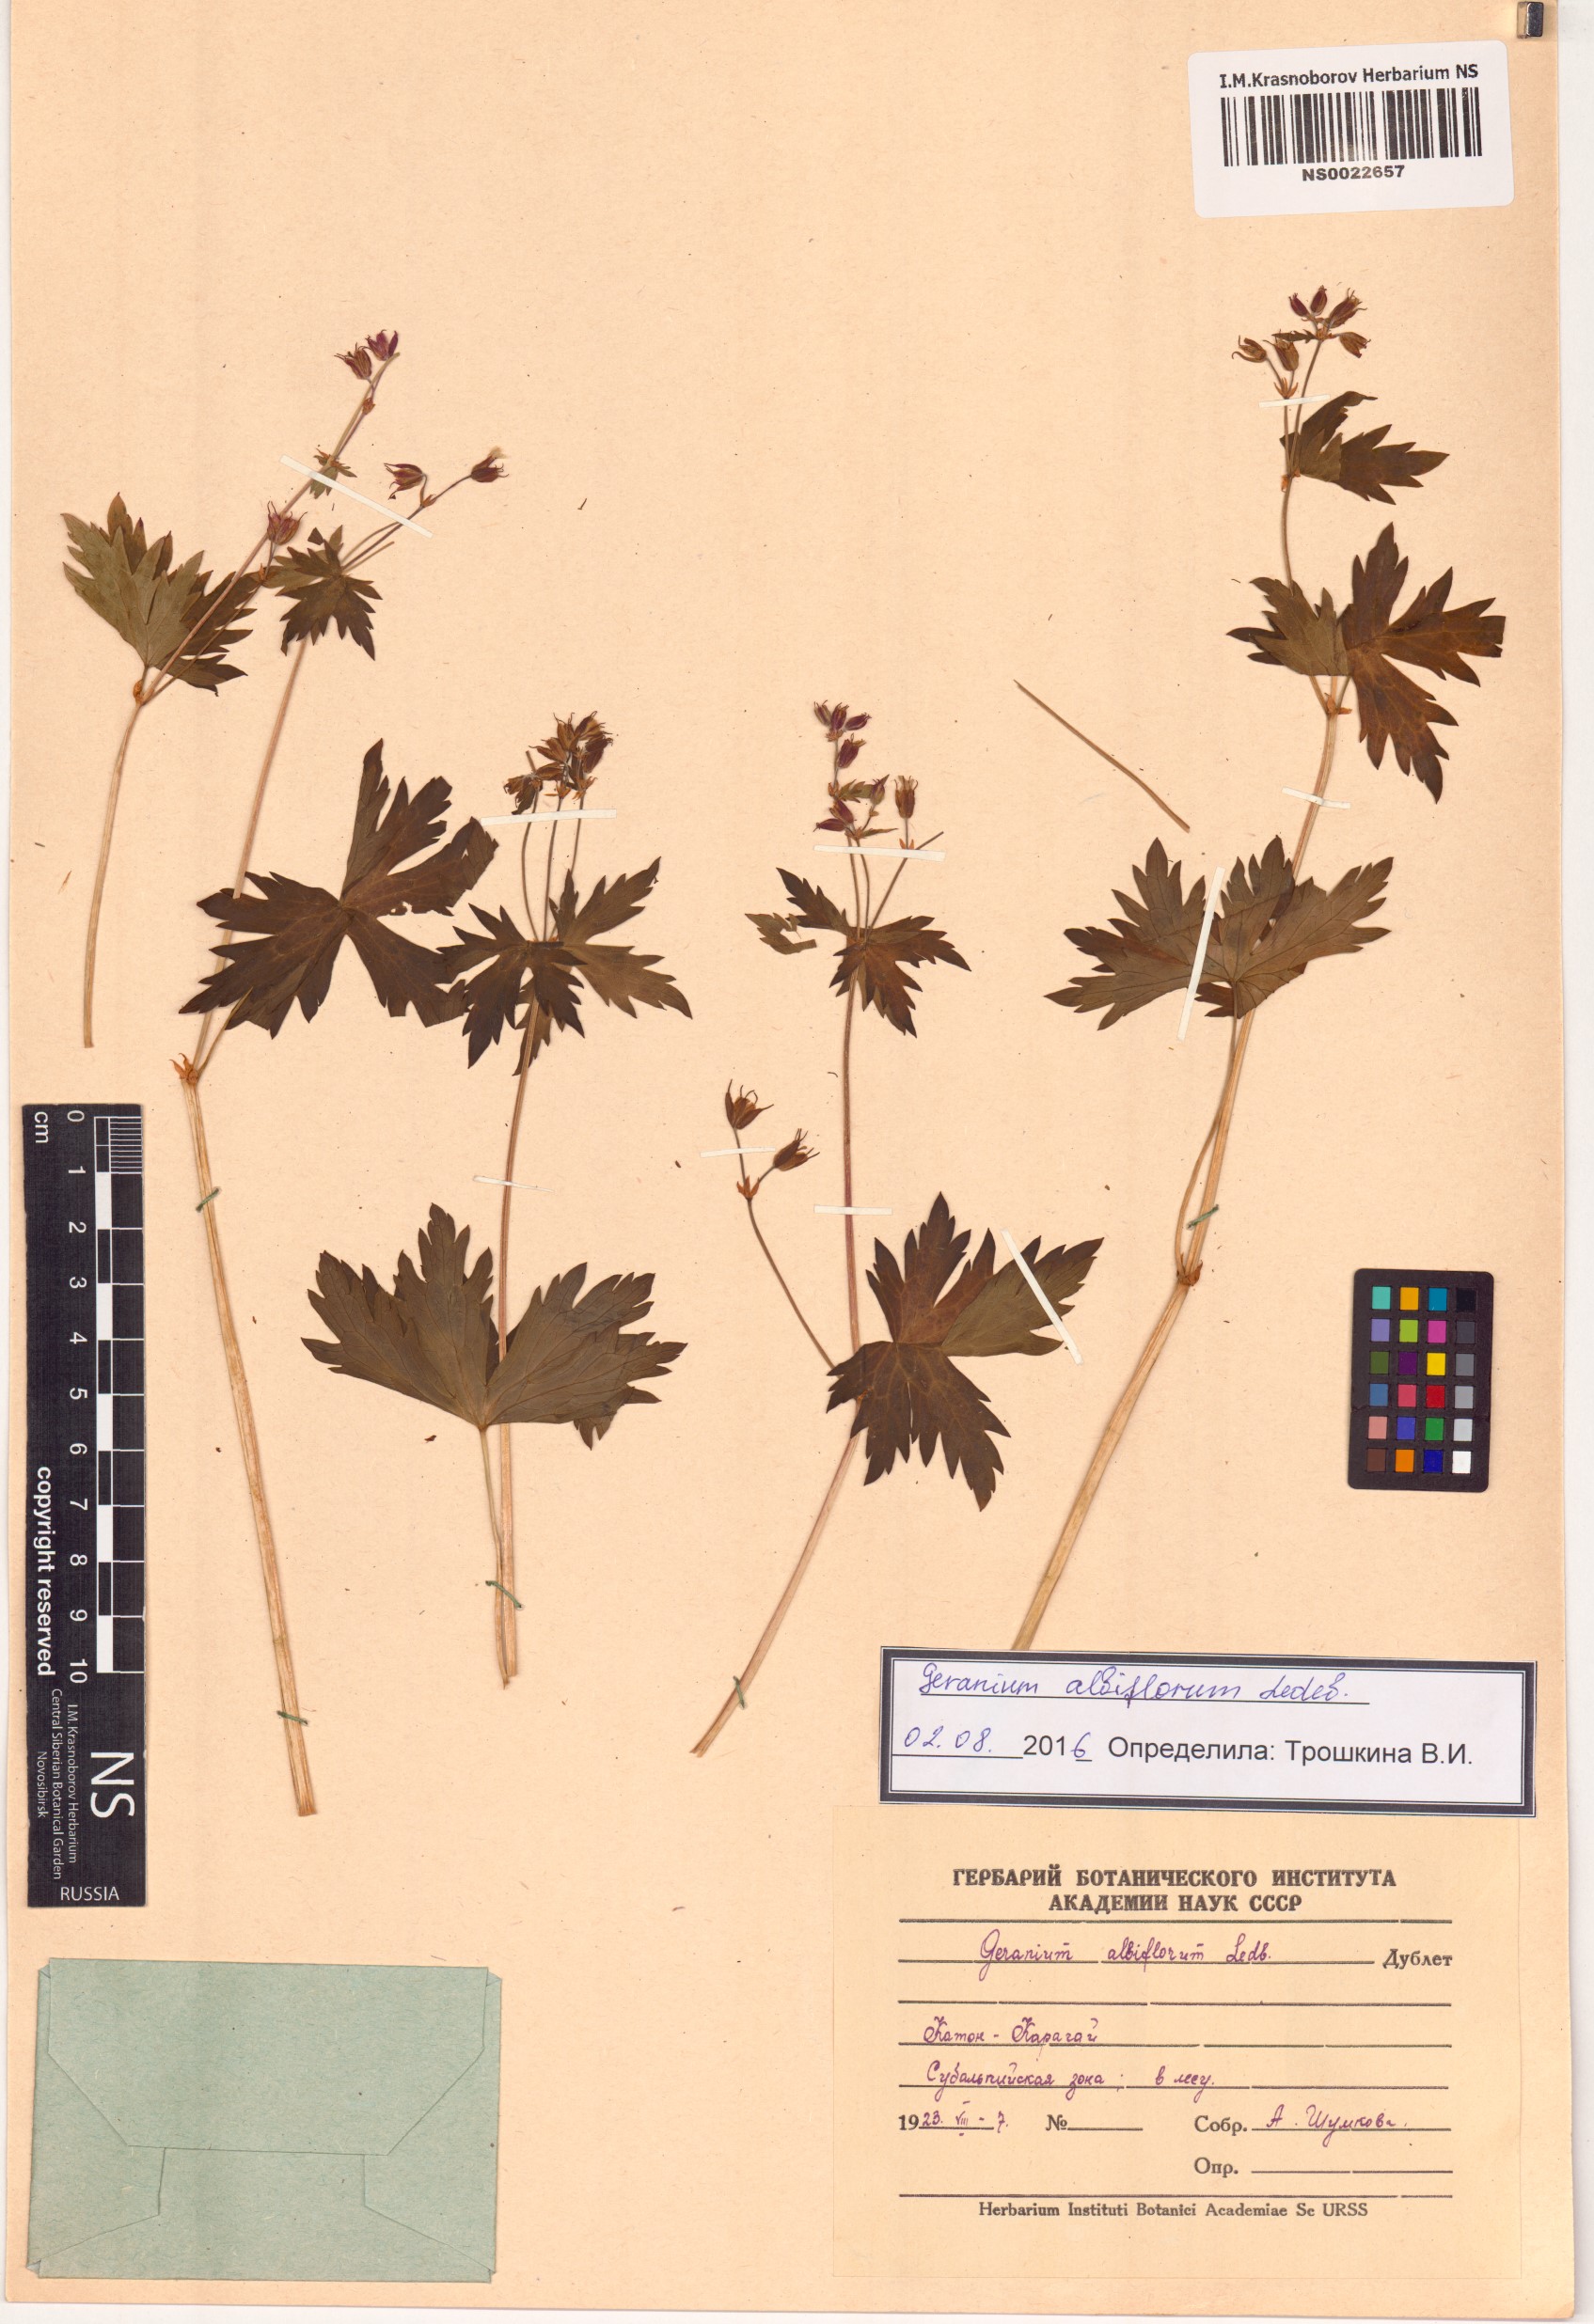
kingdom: Plantae
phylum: Tracheophyta
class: Magnoliopsida
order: Geraniales
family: Geraniaceae
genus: Geranium
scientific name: Geranium albiflorum
